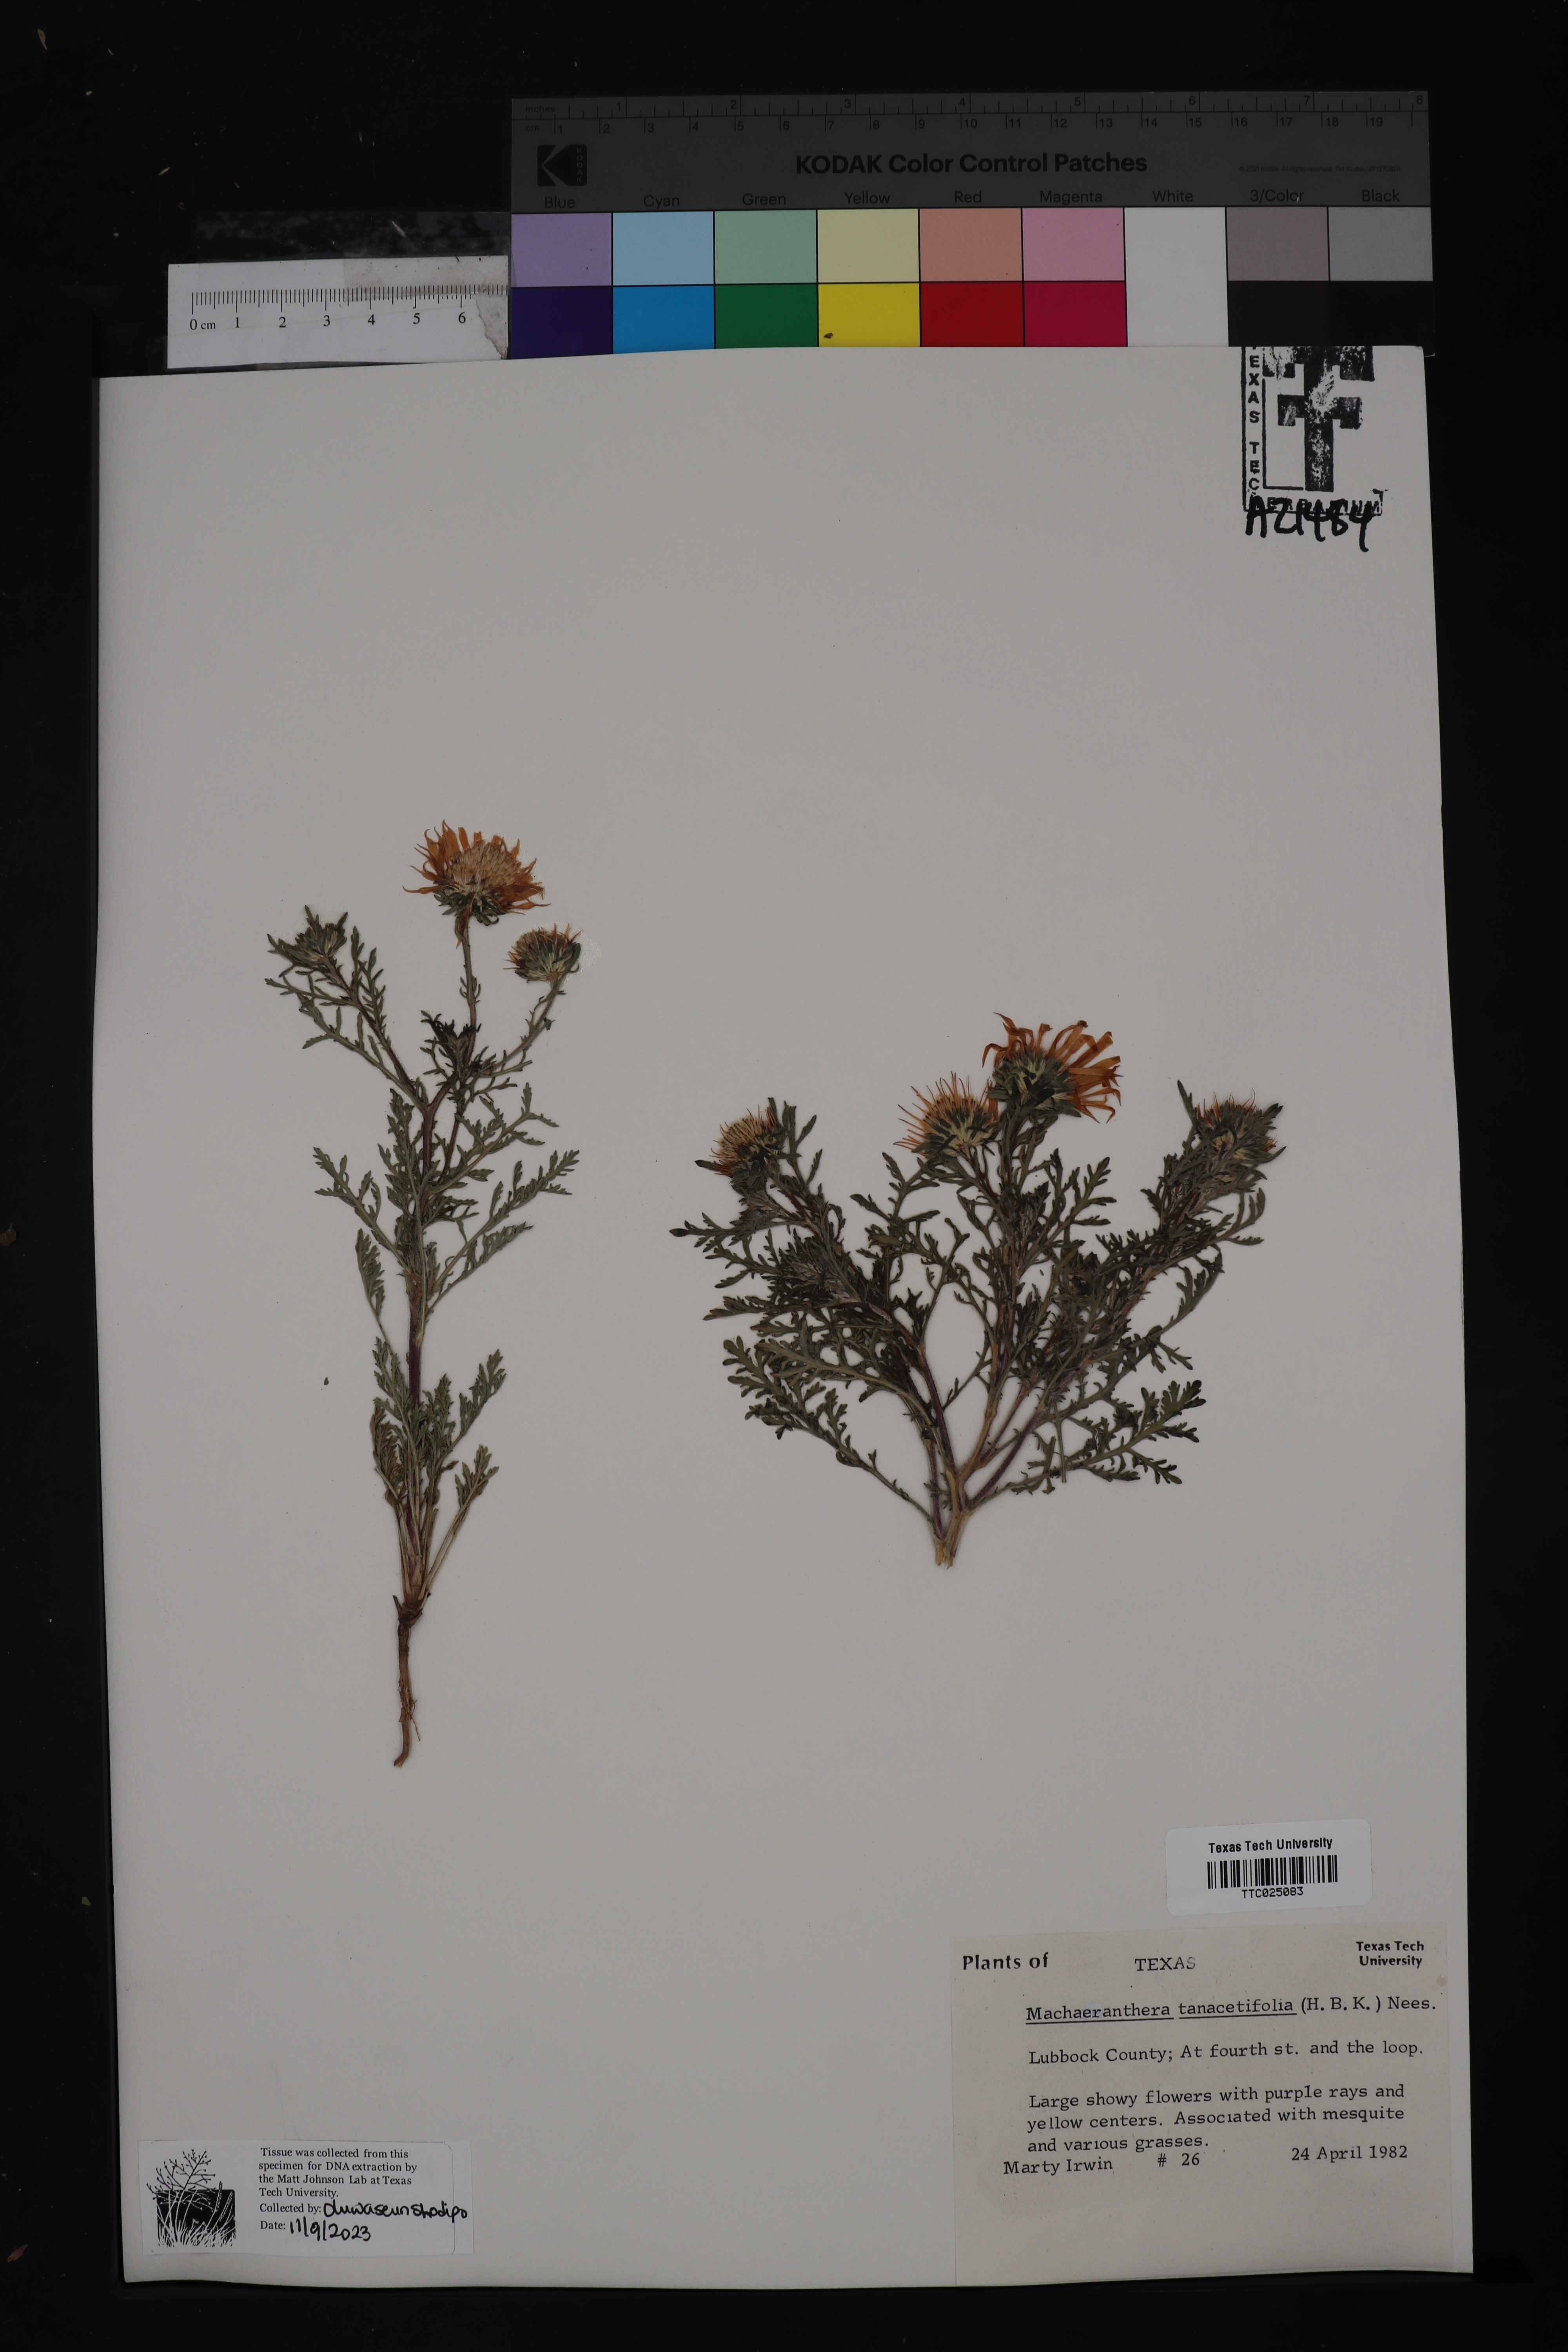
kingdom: Plantae
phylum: Tracheophyta
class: Magnoliopsida
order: Asterales
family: Asteraceae
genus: Machaeranthera
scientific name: Machaeranthera tanacetifolia
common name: Tansy-aster
